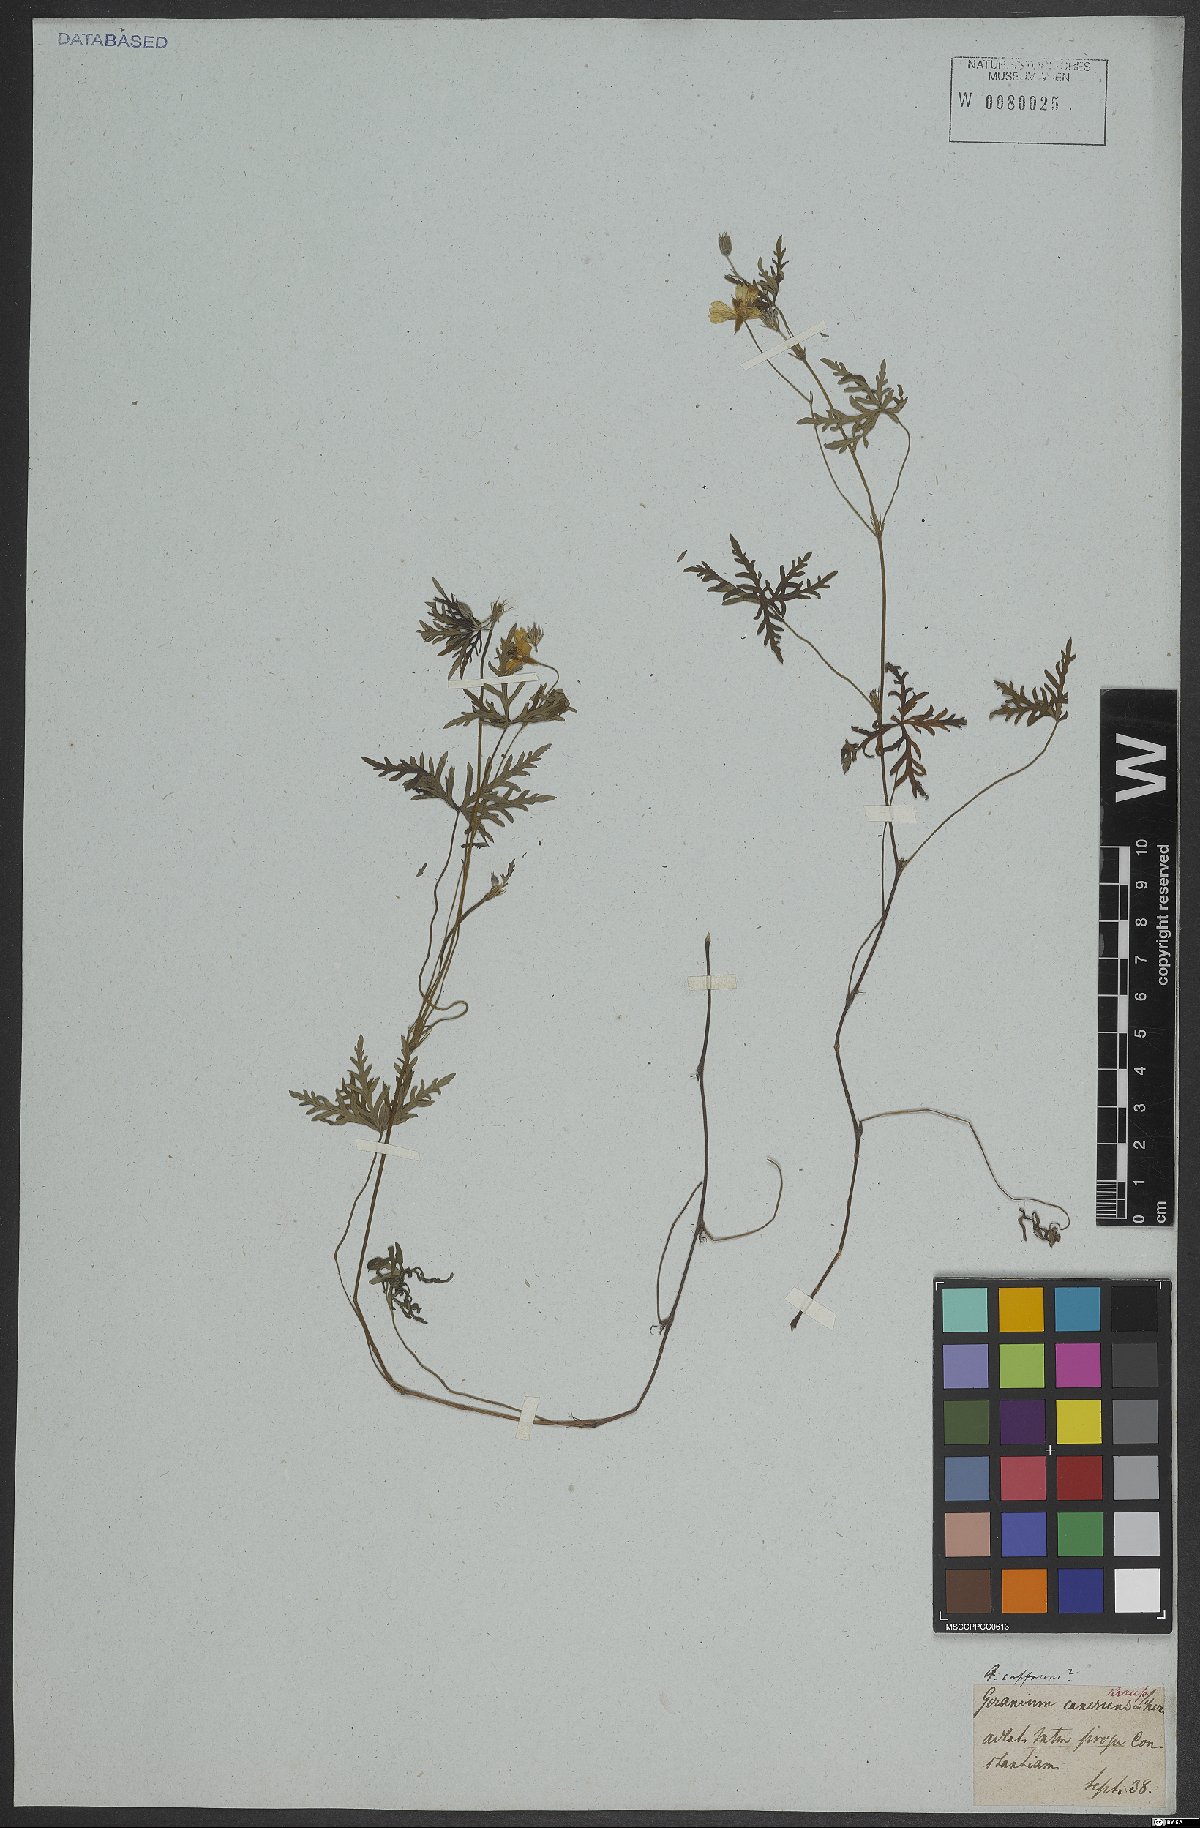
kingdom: Plantae
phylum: Tracheophyta
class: Magnoliopsida
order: Geraniales
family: Geraniaceae
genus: Geranium
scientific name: Geranium incanum
